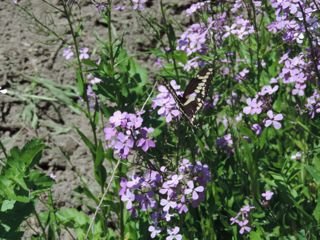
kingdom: Animalia
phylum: Arthropoda
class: Insecta
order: Lepidoptera
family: Papilionidae
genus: Papilio
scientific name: Papilio cresphontes
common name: Eastern Giant Swallowtail
